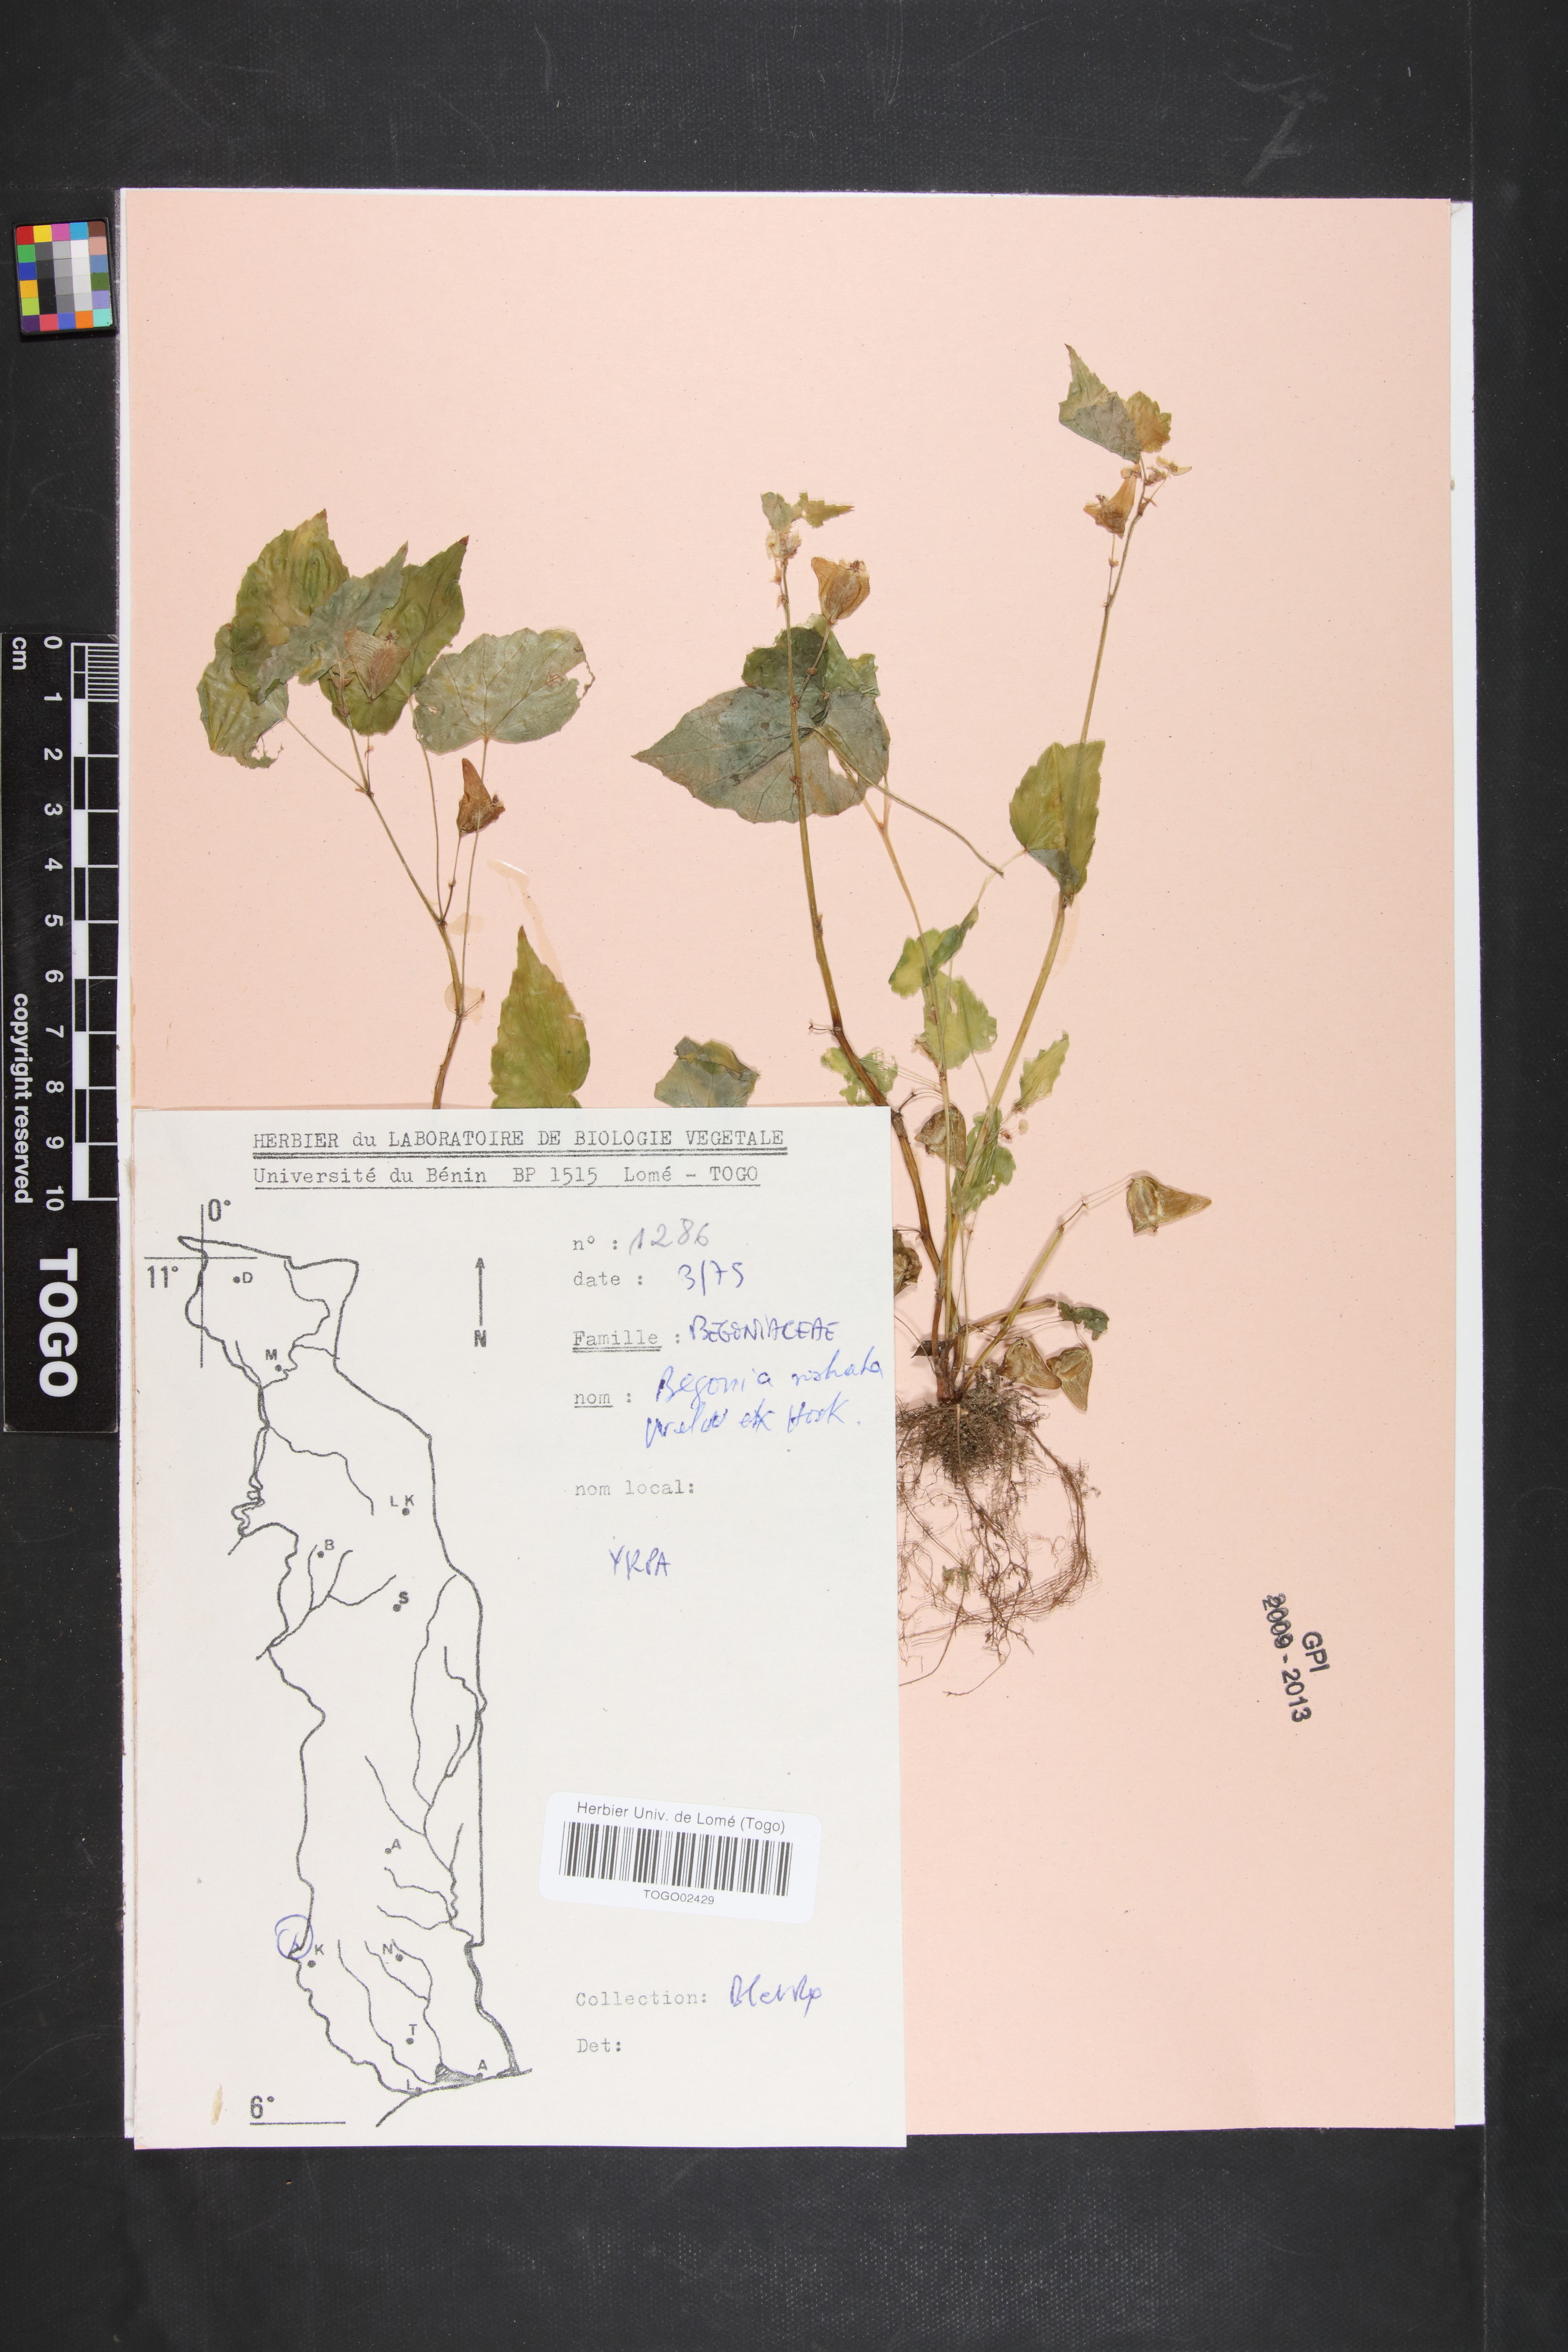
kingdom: Plantae
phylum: Tracheophyta
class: Magnoliopsida
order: Cucurbitales
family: Begoniaceae
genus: Begonia
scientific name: Begonia rostrata
